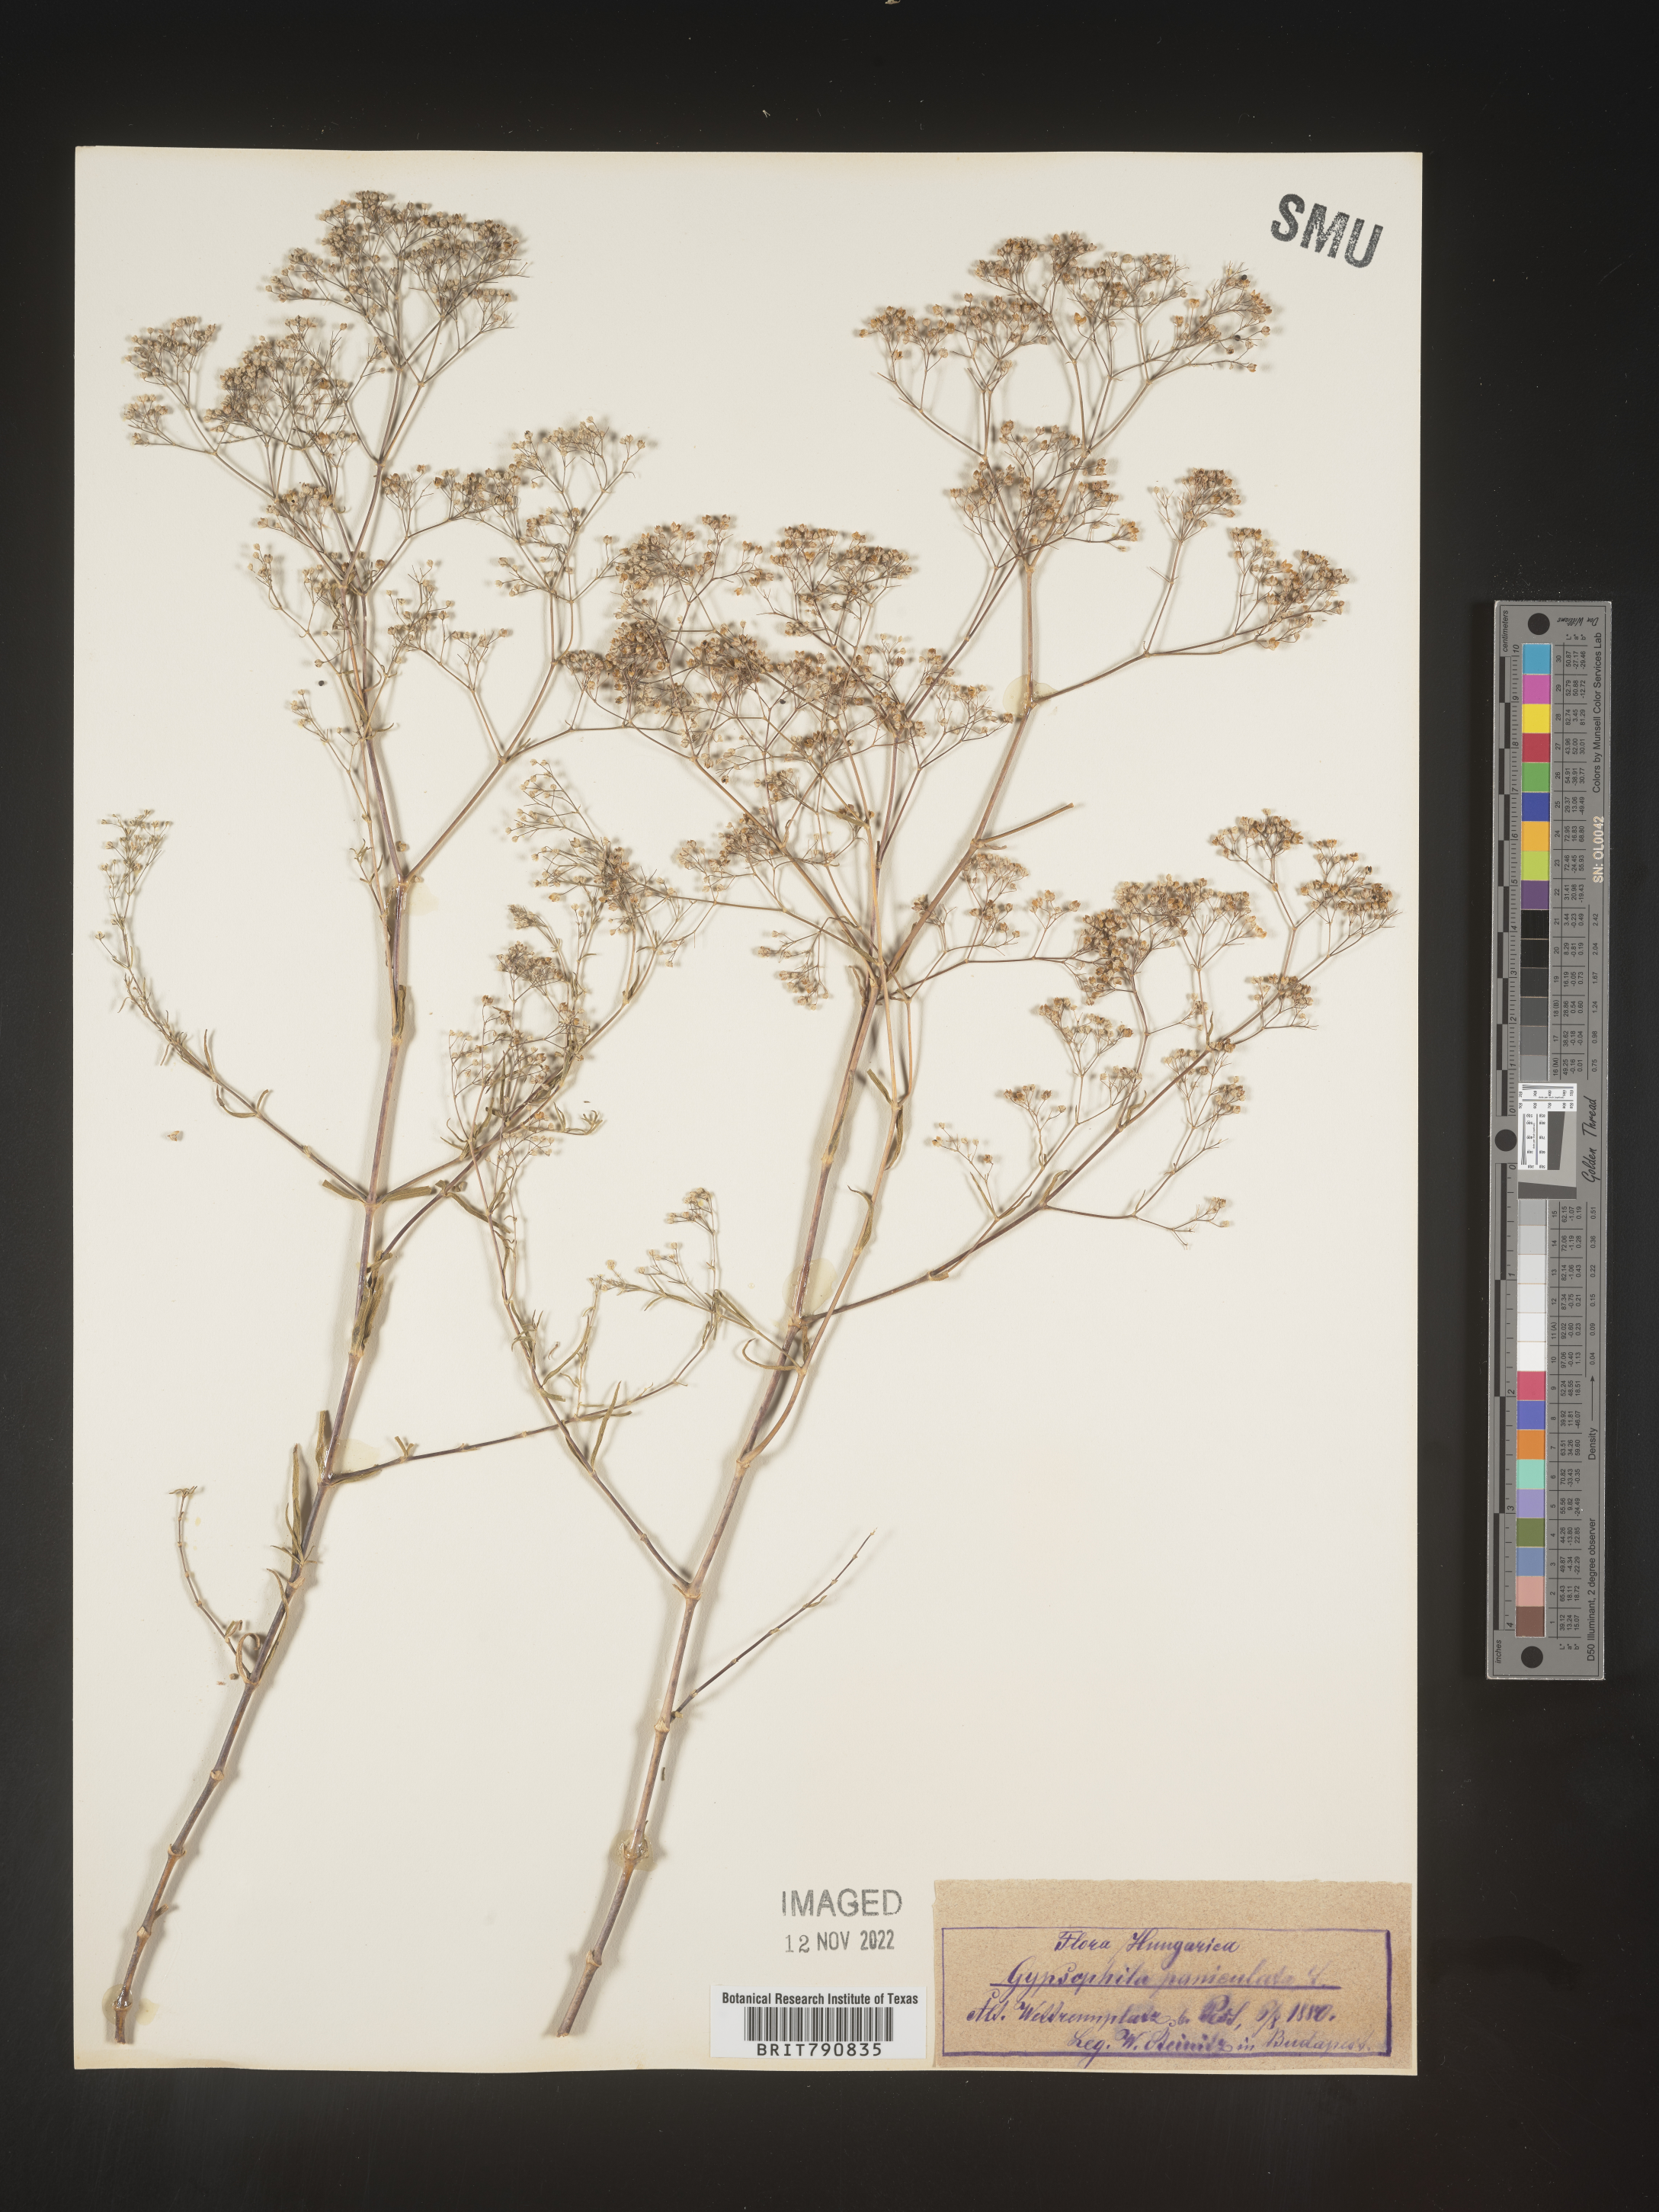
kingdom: Plantae
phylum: Tracheophyta
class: Magnoliopsida
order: Caryophyllales
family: Caryophyllaceae
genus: Gypsophila
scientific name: Gypsophila
